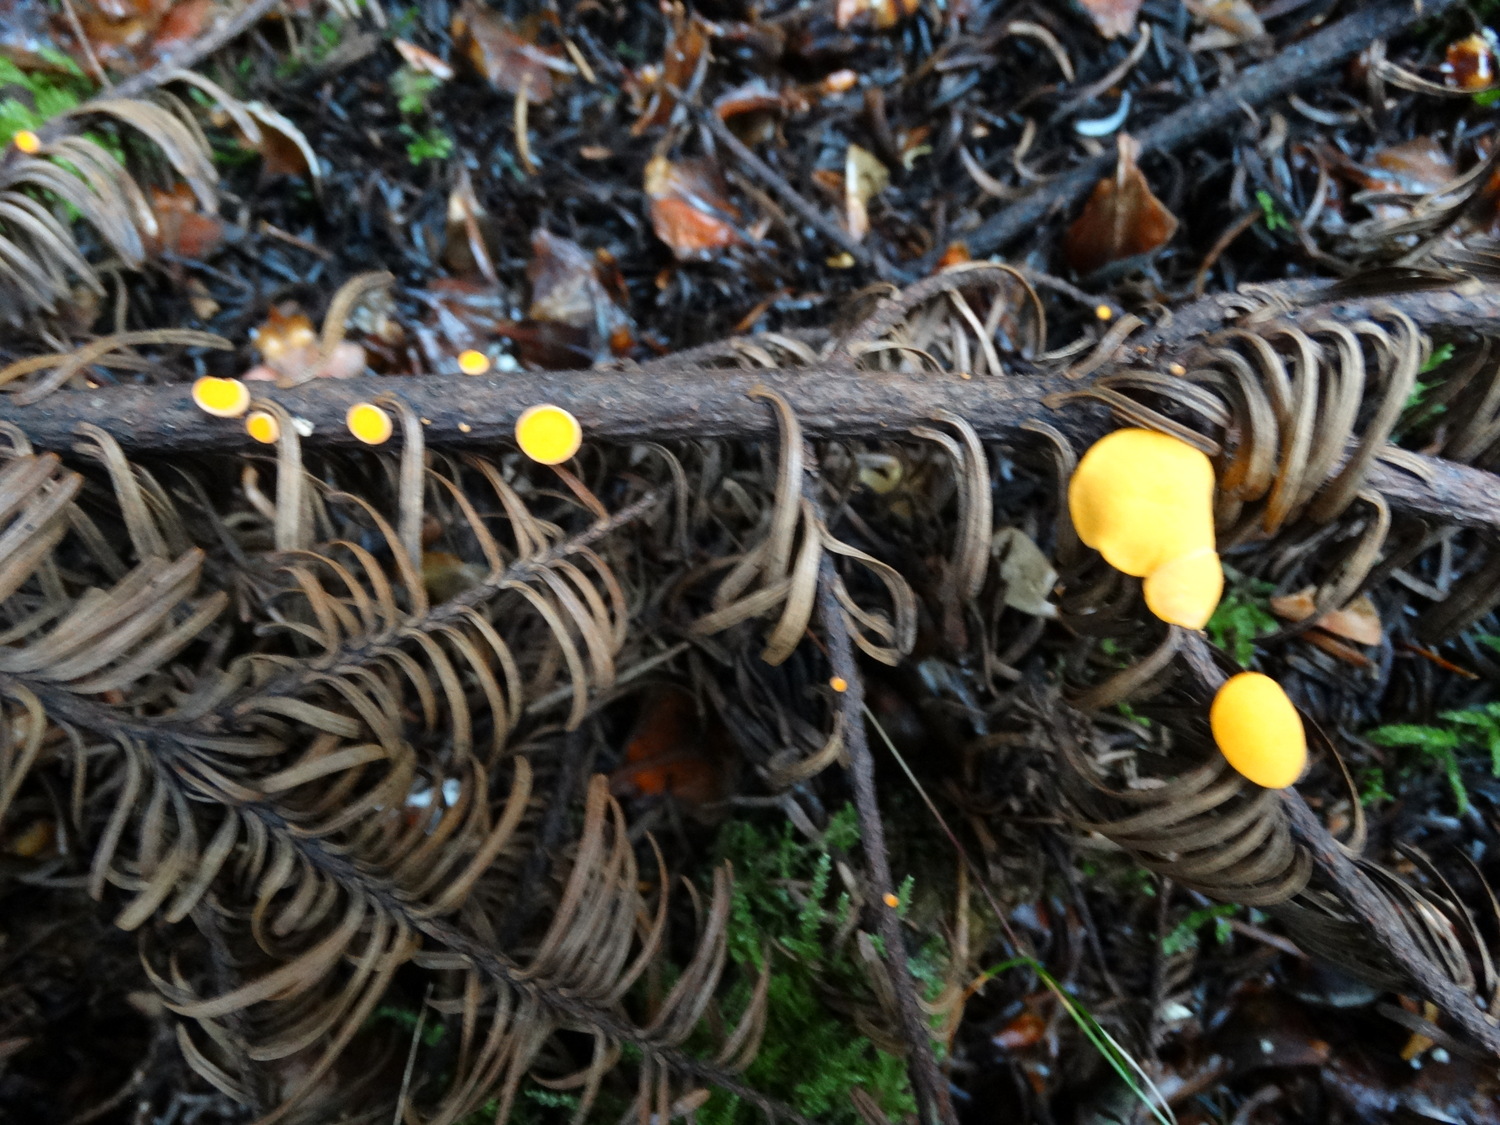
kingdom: Fungi
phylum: Ascomycota
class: Pezizomycetes
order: Pezizales
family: Sarcoscyphaceae
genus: Pithya
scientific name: Pithya vulgaris
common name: stor dukatbæger
